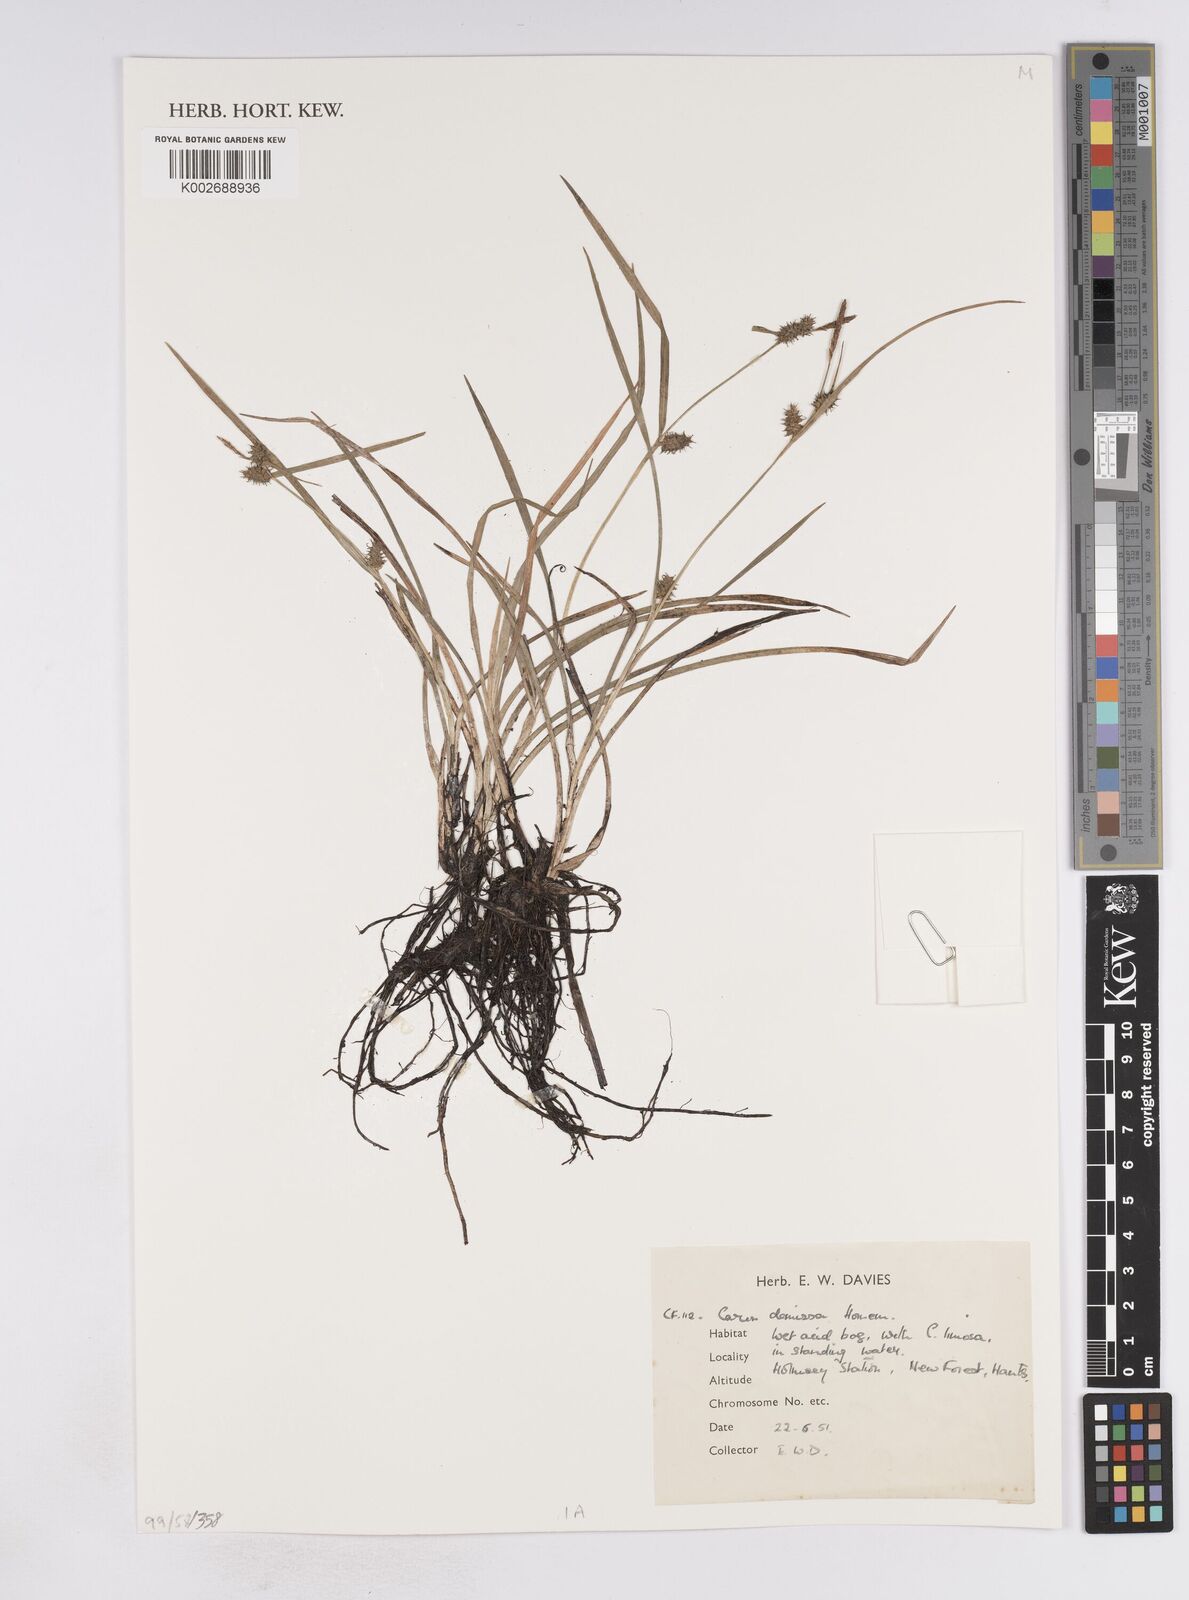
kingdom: Plantae
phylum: Tracheophyta
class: Liliopsida
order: Poales
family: Cyperaceae
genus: Carex
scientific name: Carex demissa
